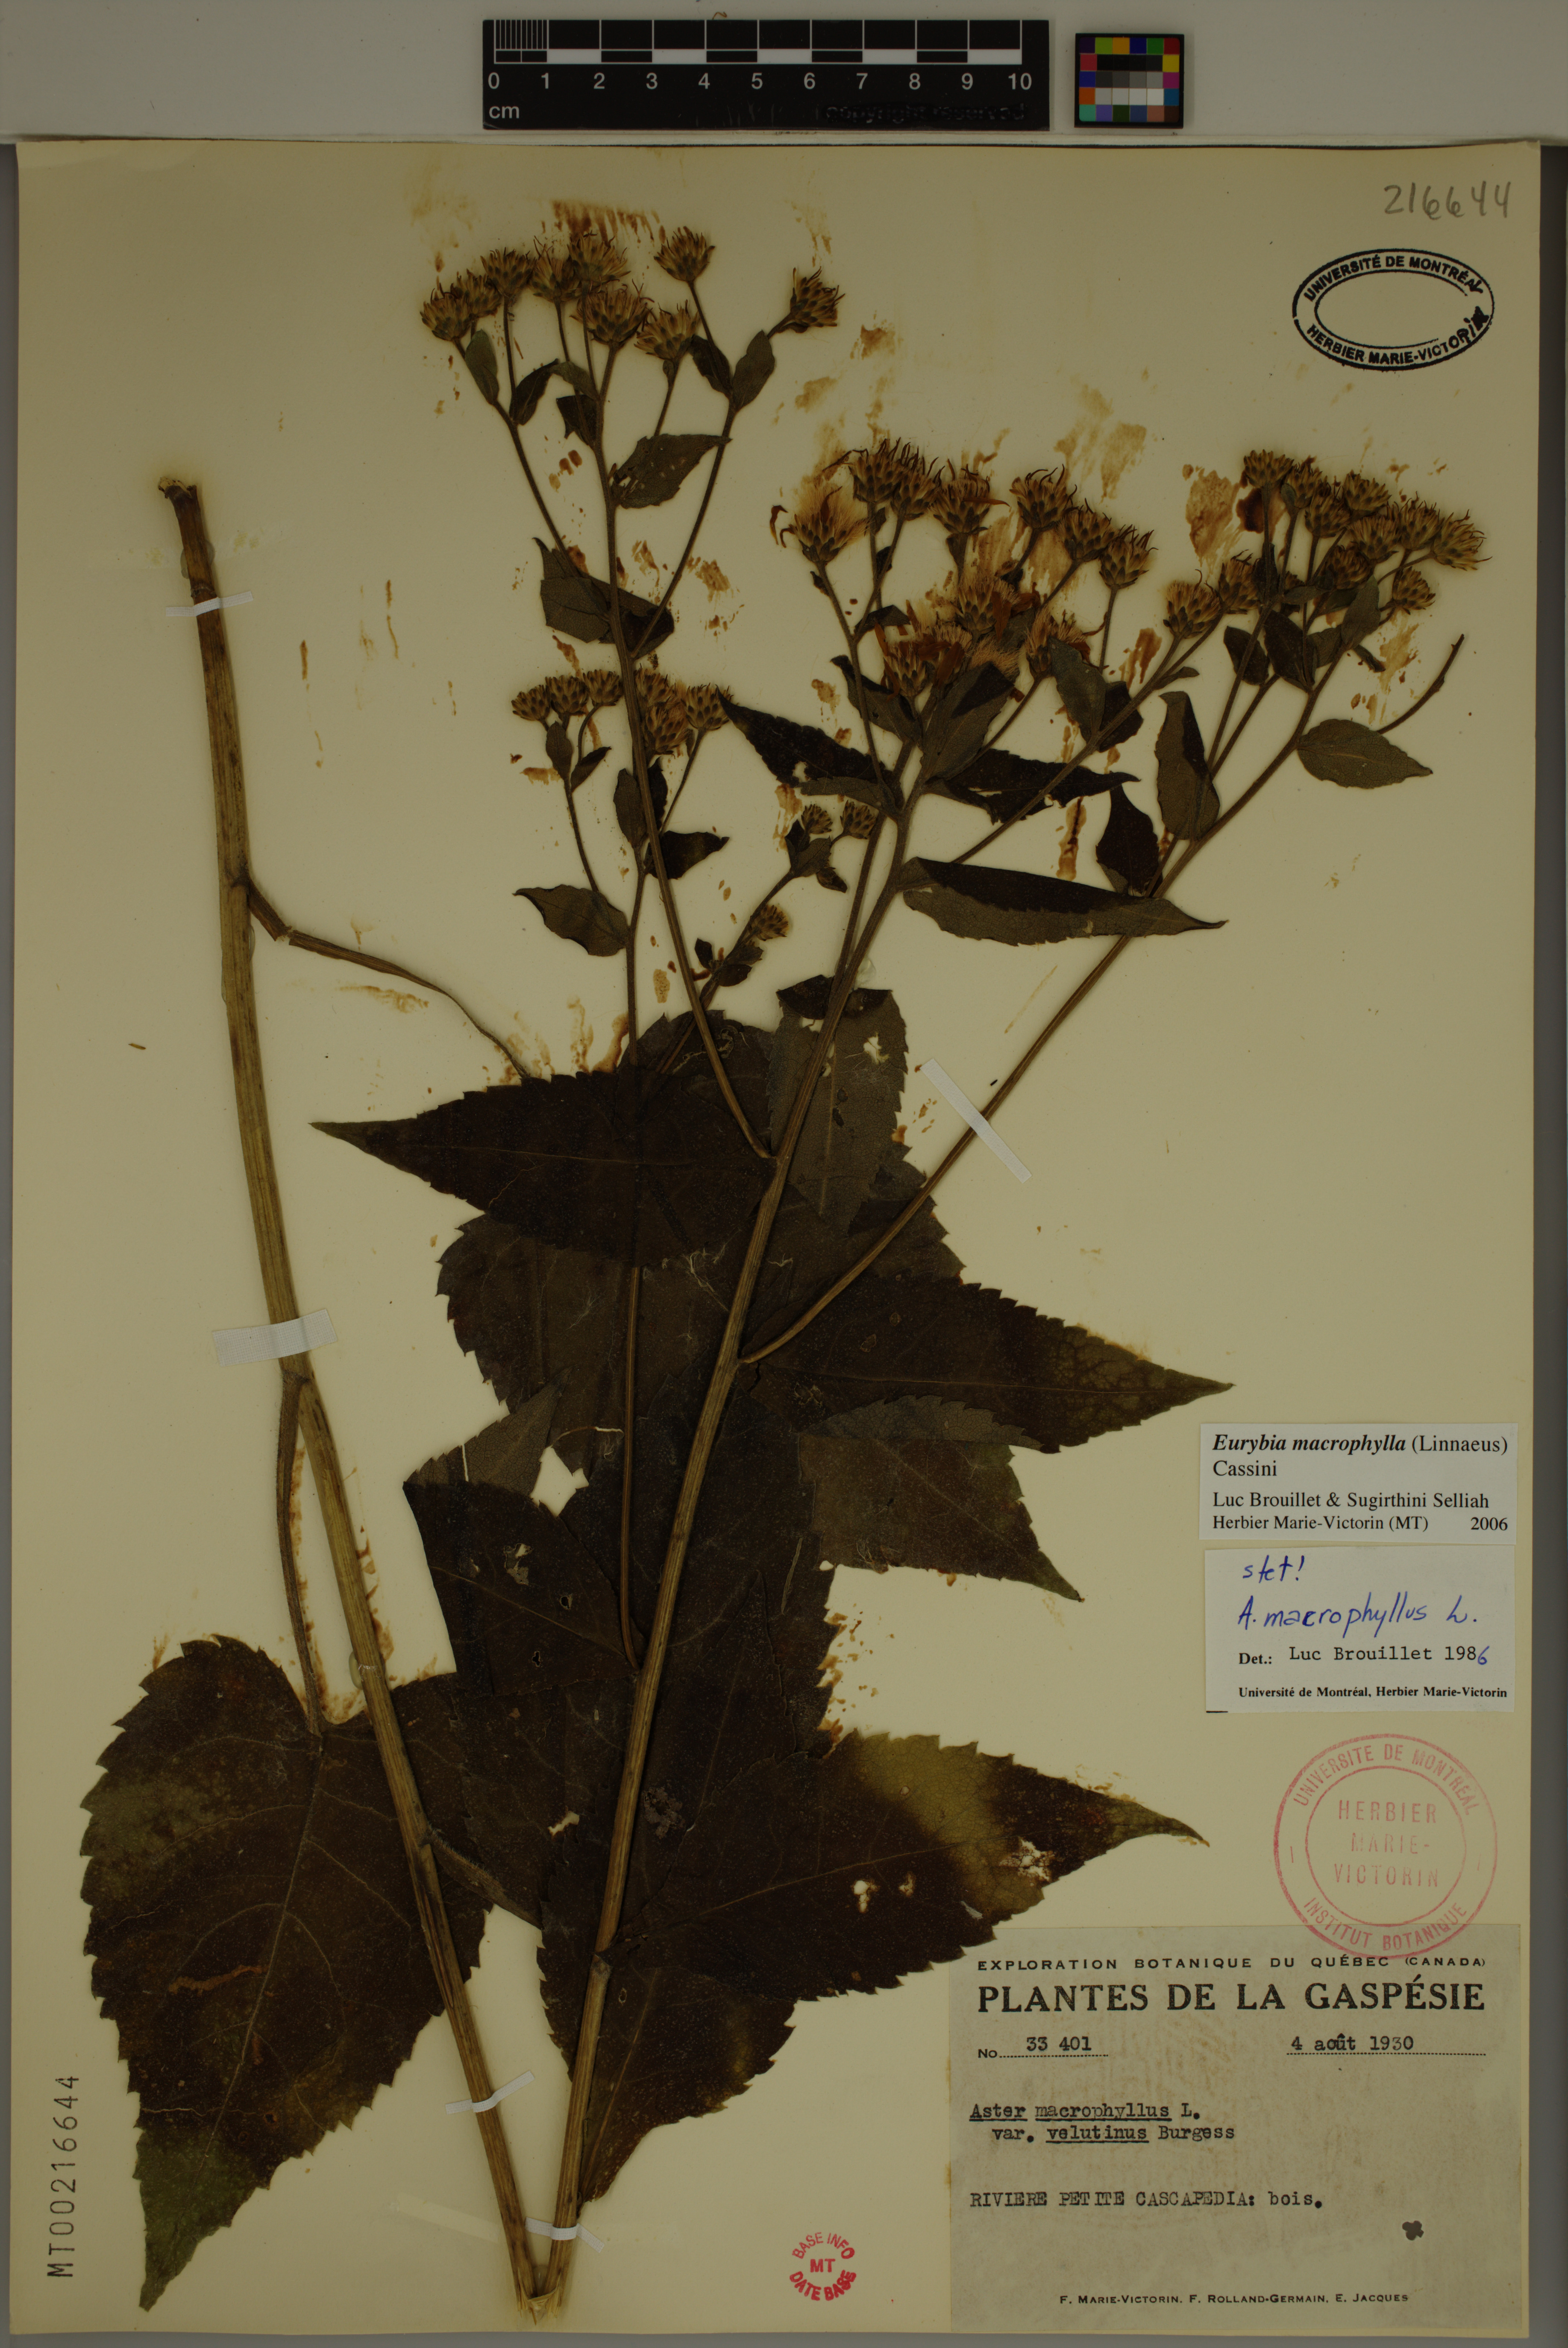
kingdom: Plantae
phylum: Tracheophyta
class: Magnoliopsida
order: Asterales
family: Asteraceae
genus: Eurybia
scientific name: Eurybia macrophylla
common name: Big-leaved aster
